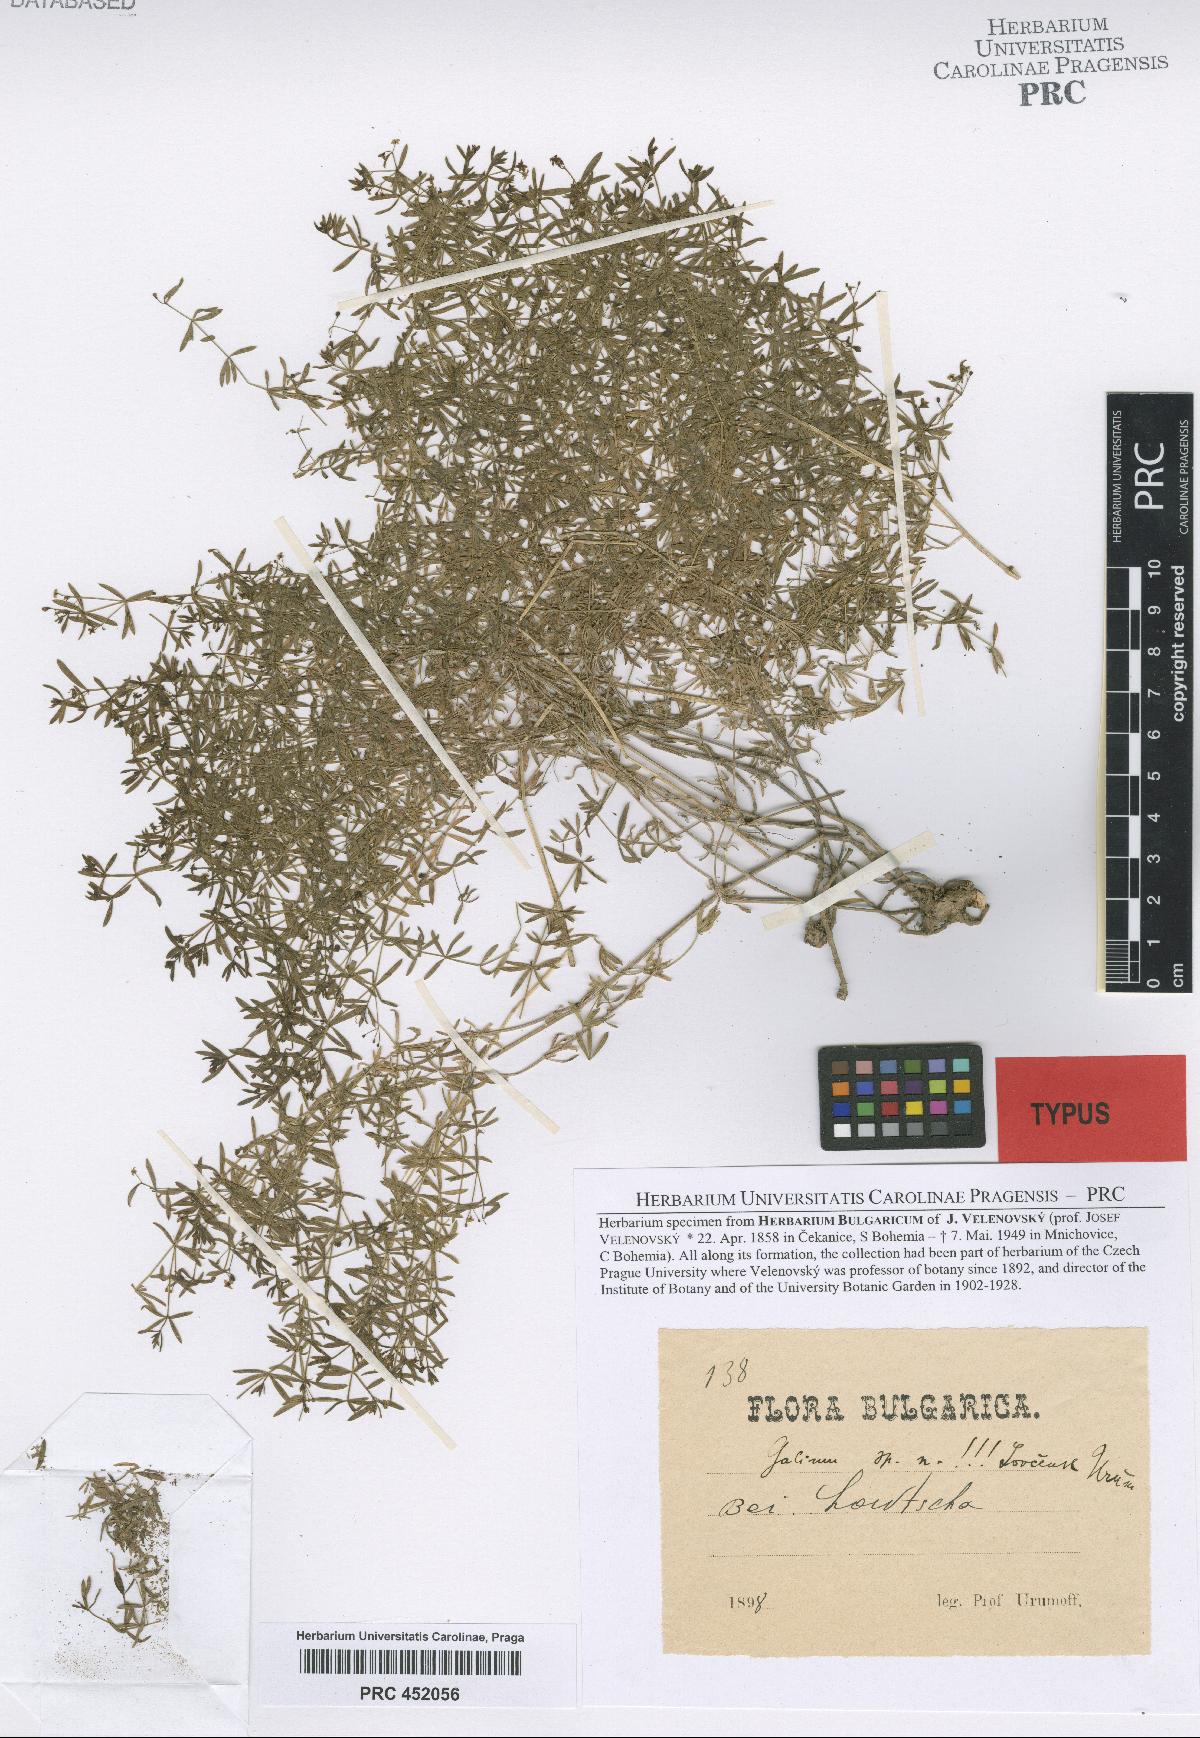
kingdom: Plantae
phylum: Tracheophyta
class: Magnoliopsida
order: Gentianales
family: Rubiaceae
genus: Galium
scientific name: Galium lovcense
